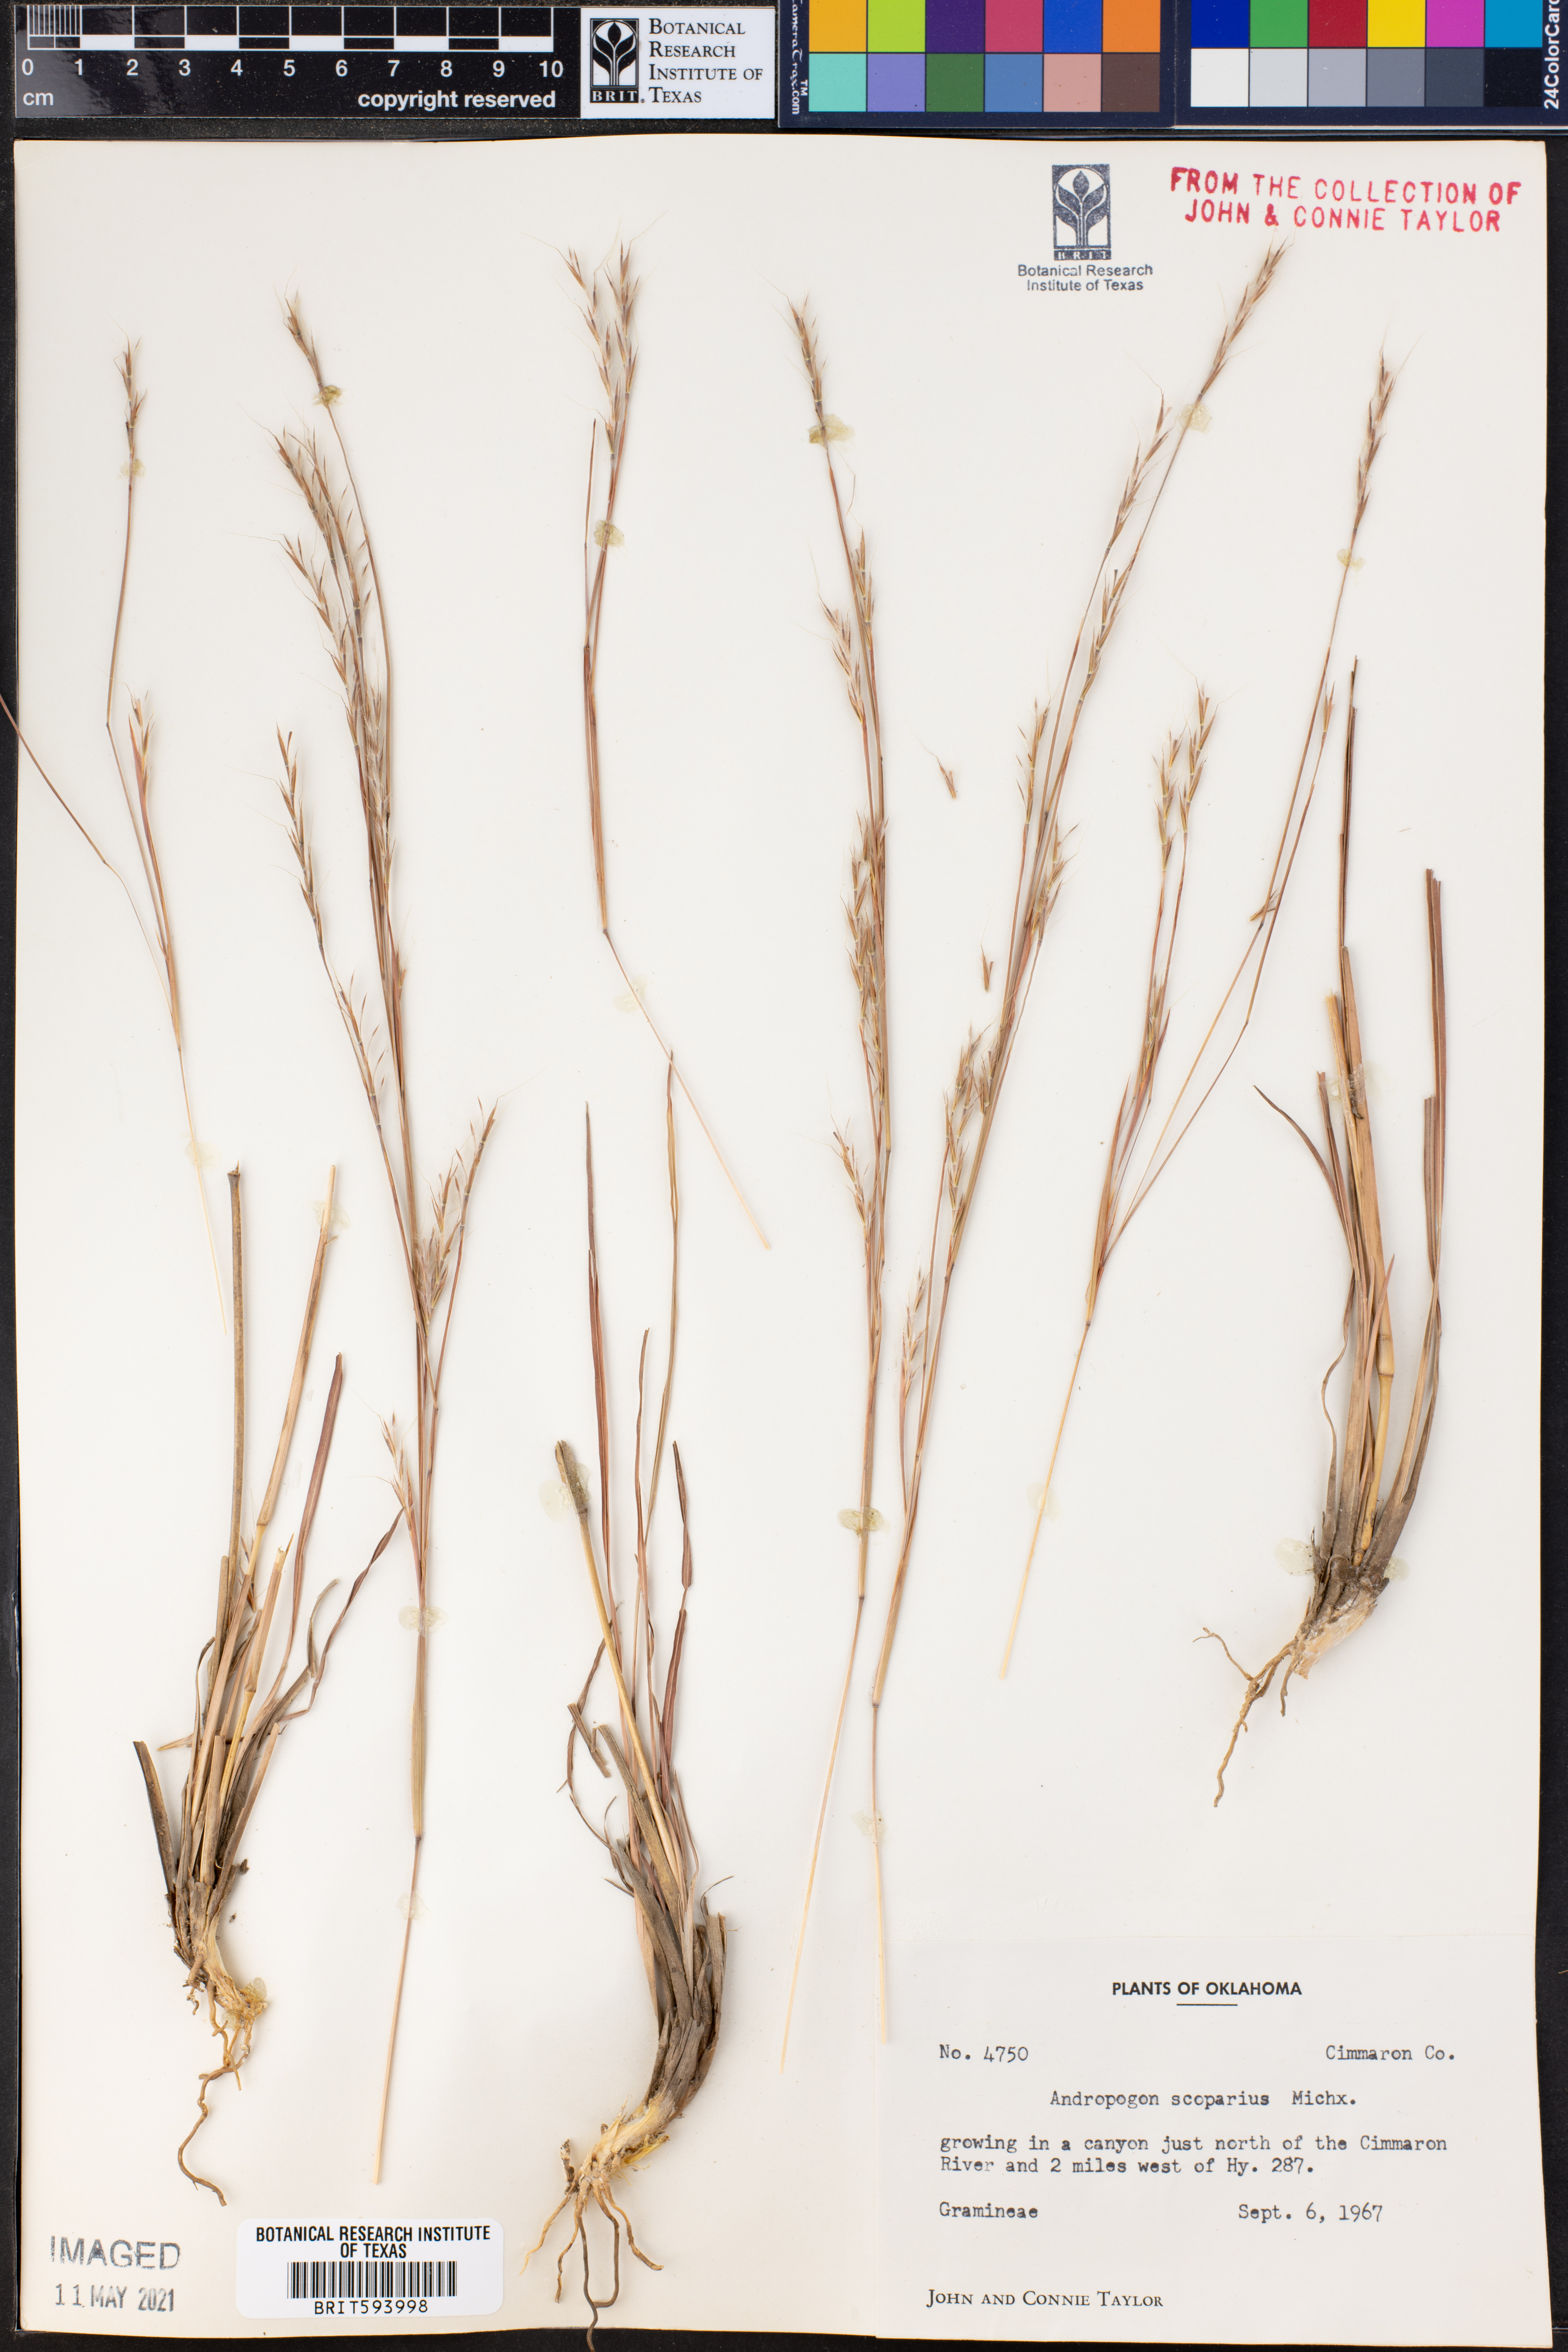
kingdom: Plantae
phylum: Tracheophyta
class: Liliopsida
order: Poales
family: Poaceae
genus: Schizachyrium
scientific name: Schizachyrium scoparium
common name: Little bluestem
